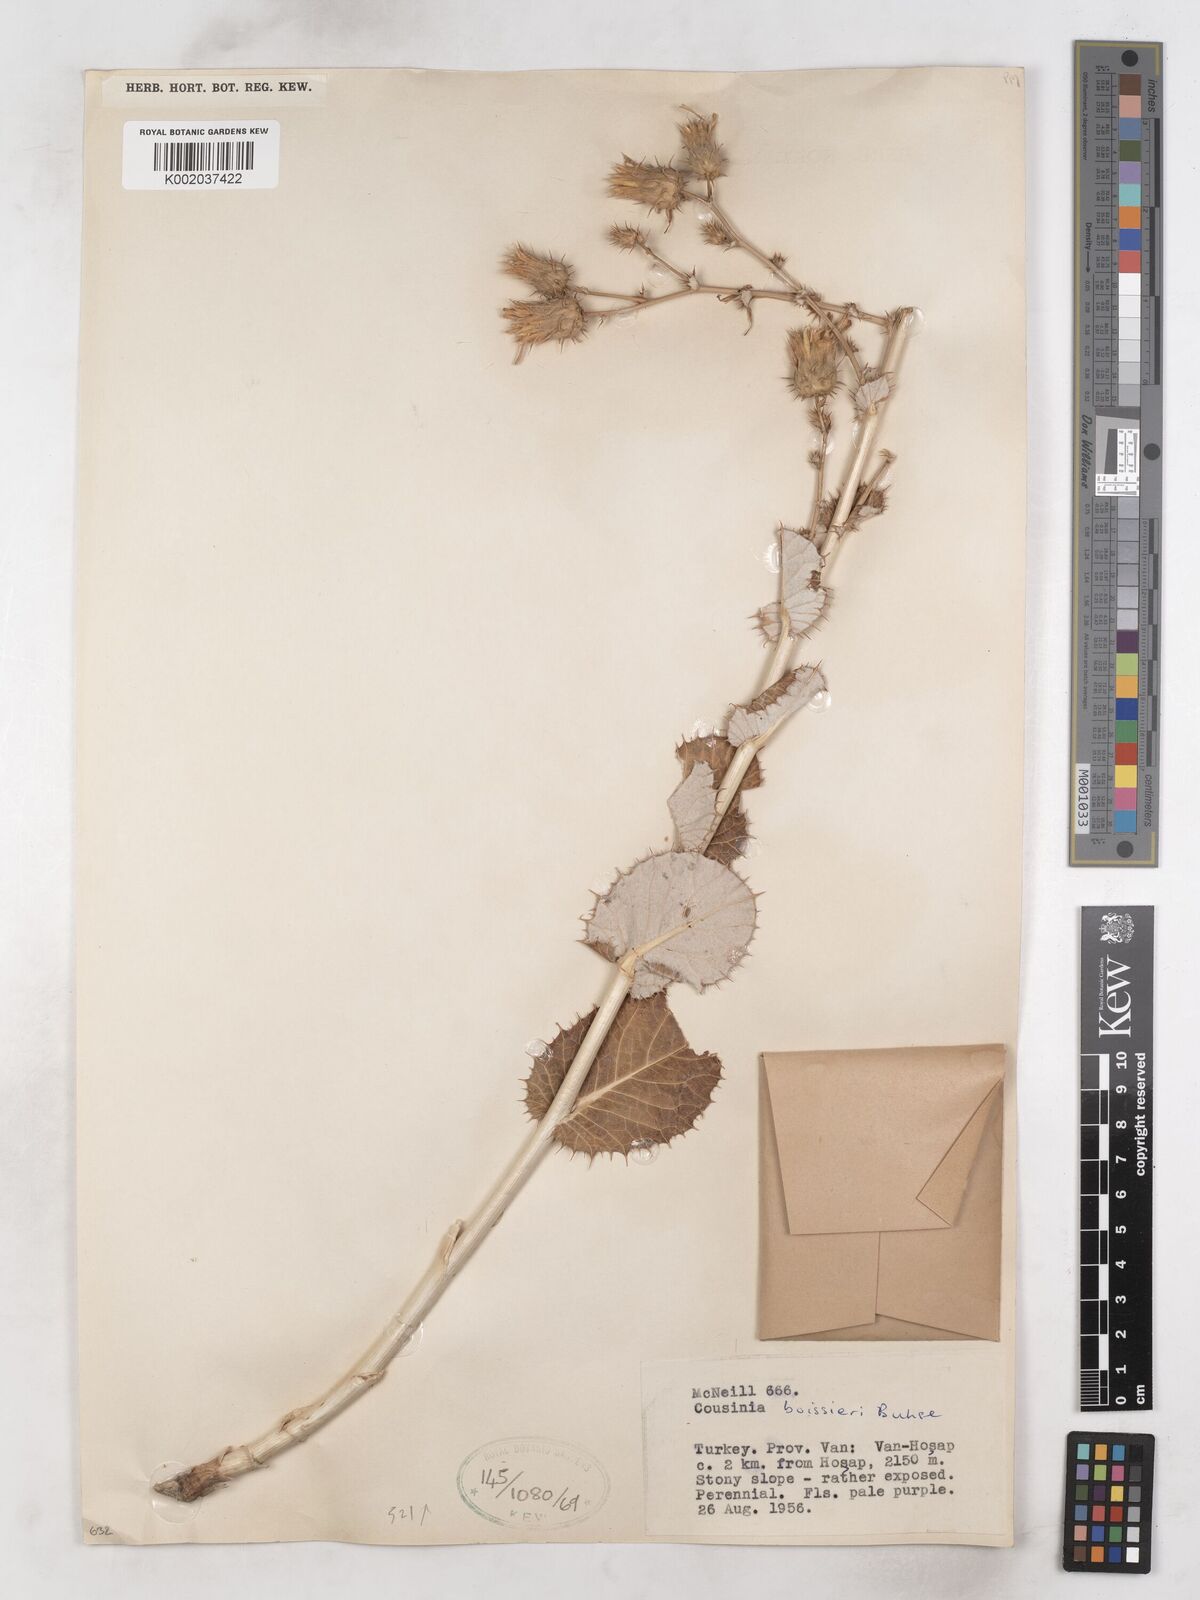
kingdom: Plantae
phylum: Tracheophyta
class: Magnoliopsida
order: Asterales
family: Asteraceae
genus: Cousinia
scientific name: Cousinia boissieri
